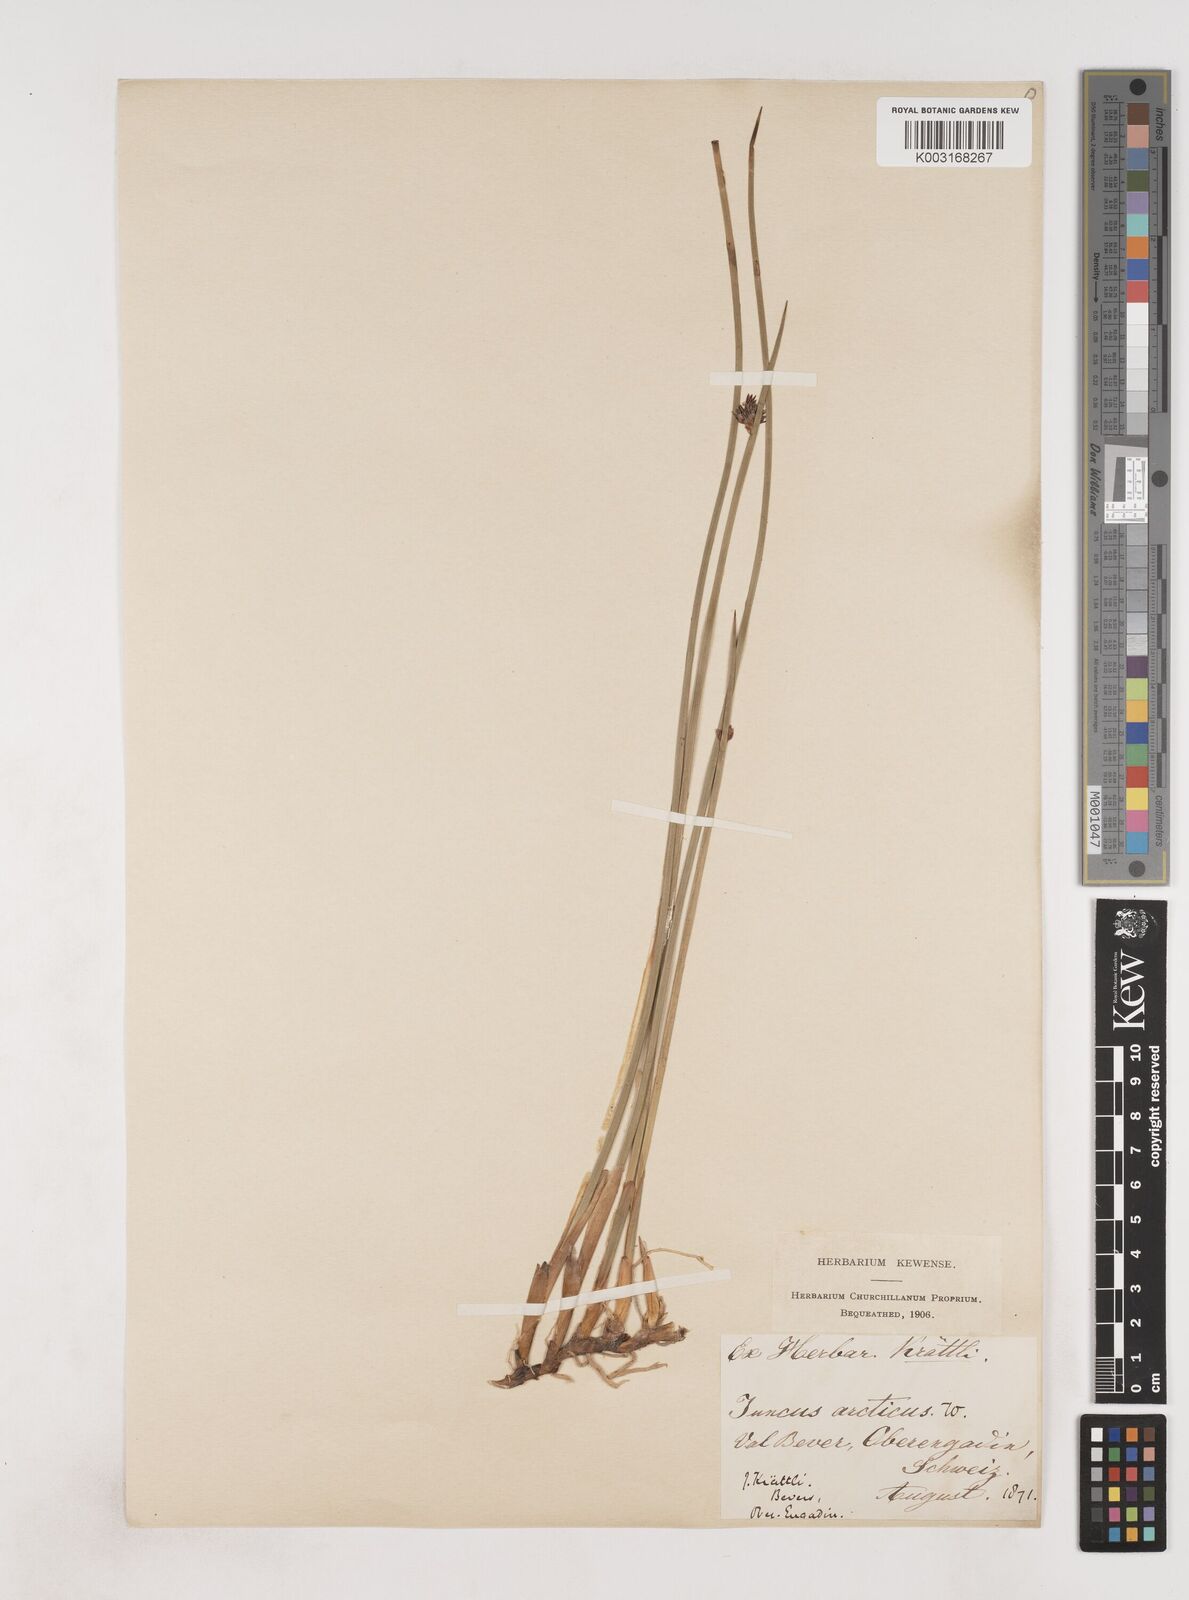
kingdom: Plantae
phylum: Tracheophyta
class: Liliopsida
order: Poales
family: Juncaceae
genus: Juncus
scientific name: Juncus arcticus
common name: Arctic rush
